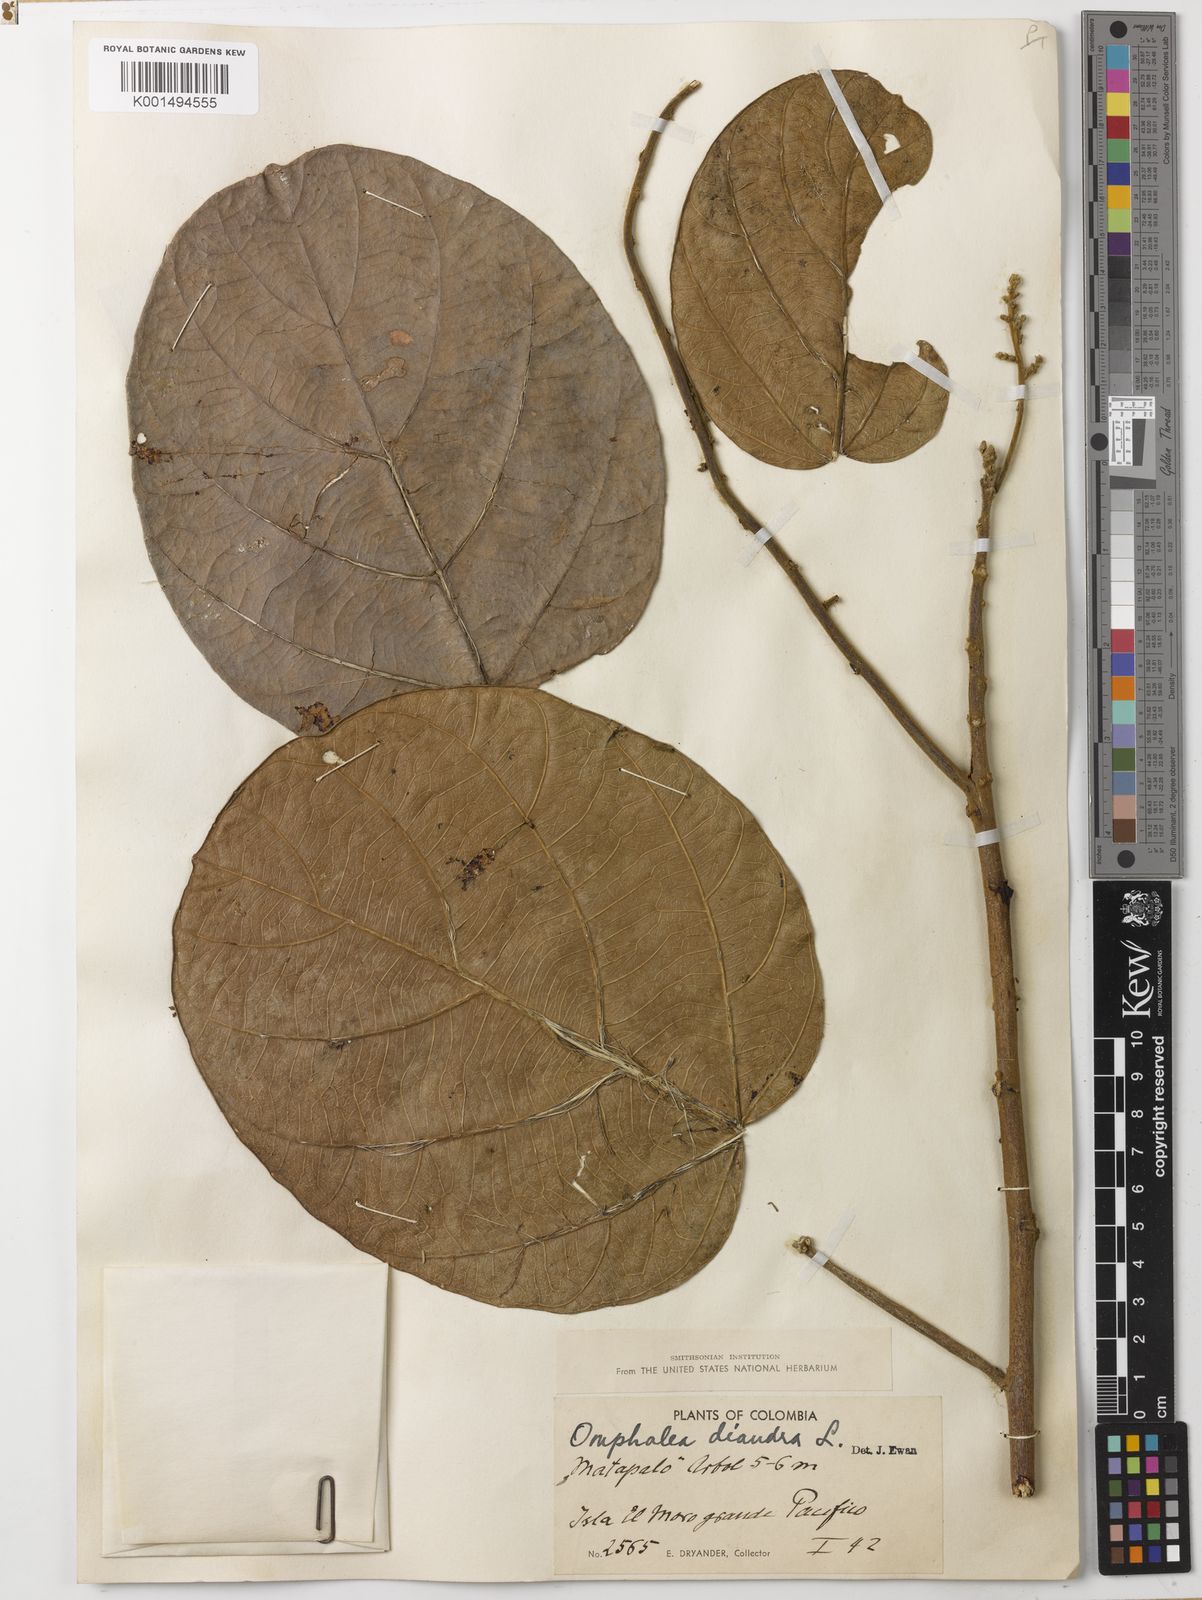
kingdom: Plantae
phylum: Tracheophyta
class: Magnoliopsida
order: Malpighiales
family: Euphorbiaceae
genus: Omphalea
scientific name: Omphalea diandra
